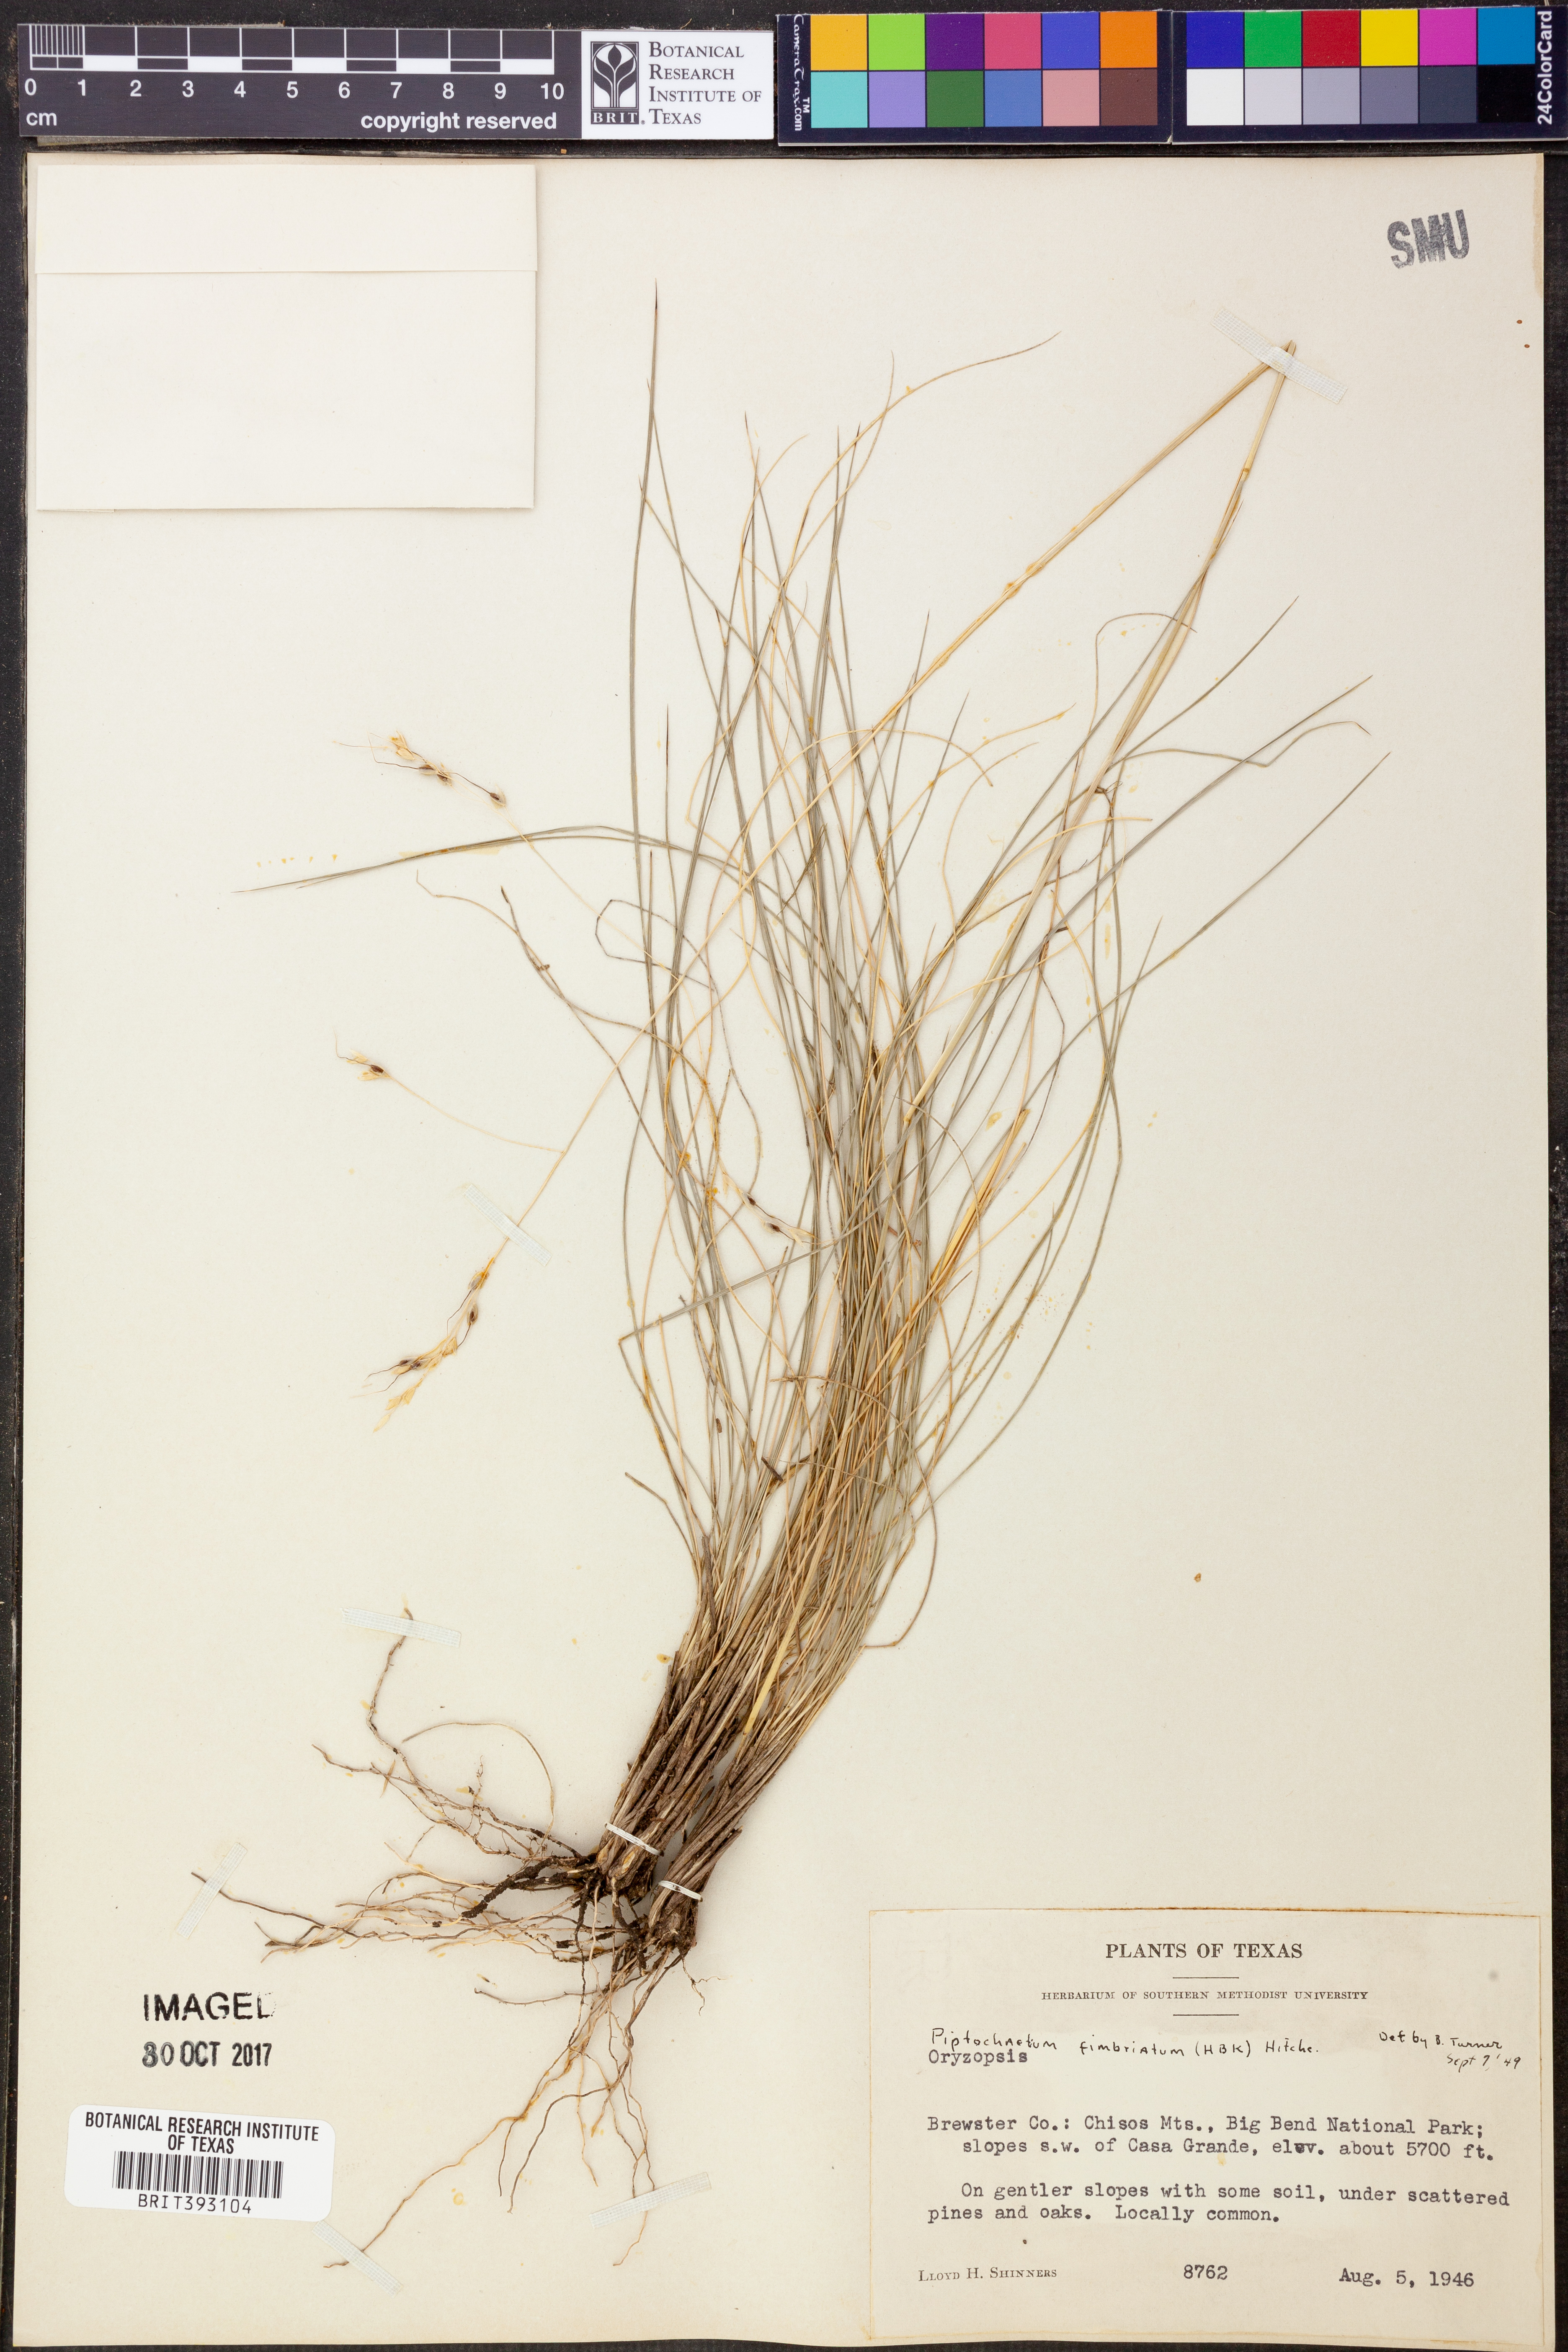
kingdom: Plantae
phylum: Tracheophyta
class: Liliopsida
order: Poales
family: Poaceae
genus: Piptochaetium
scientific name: Piptochaetium fimbriatum
